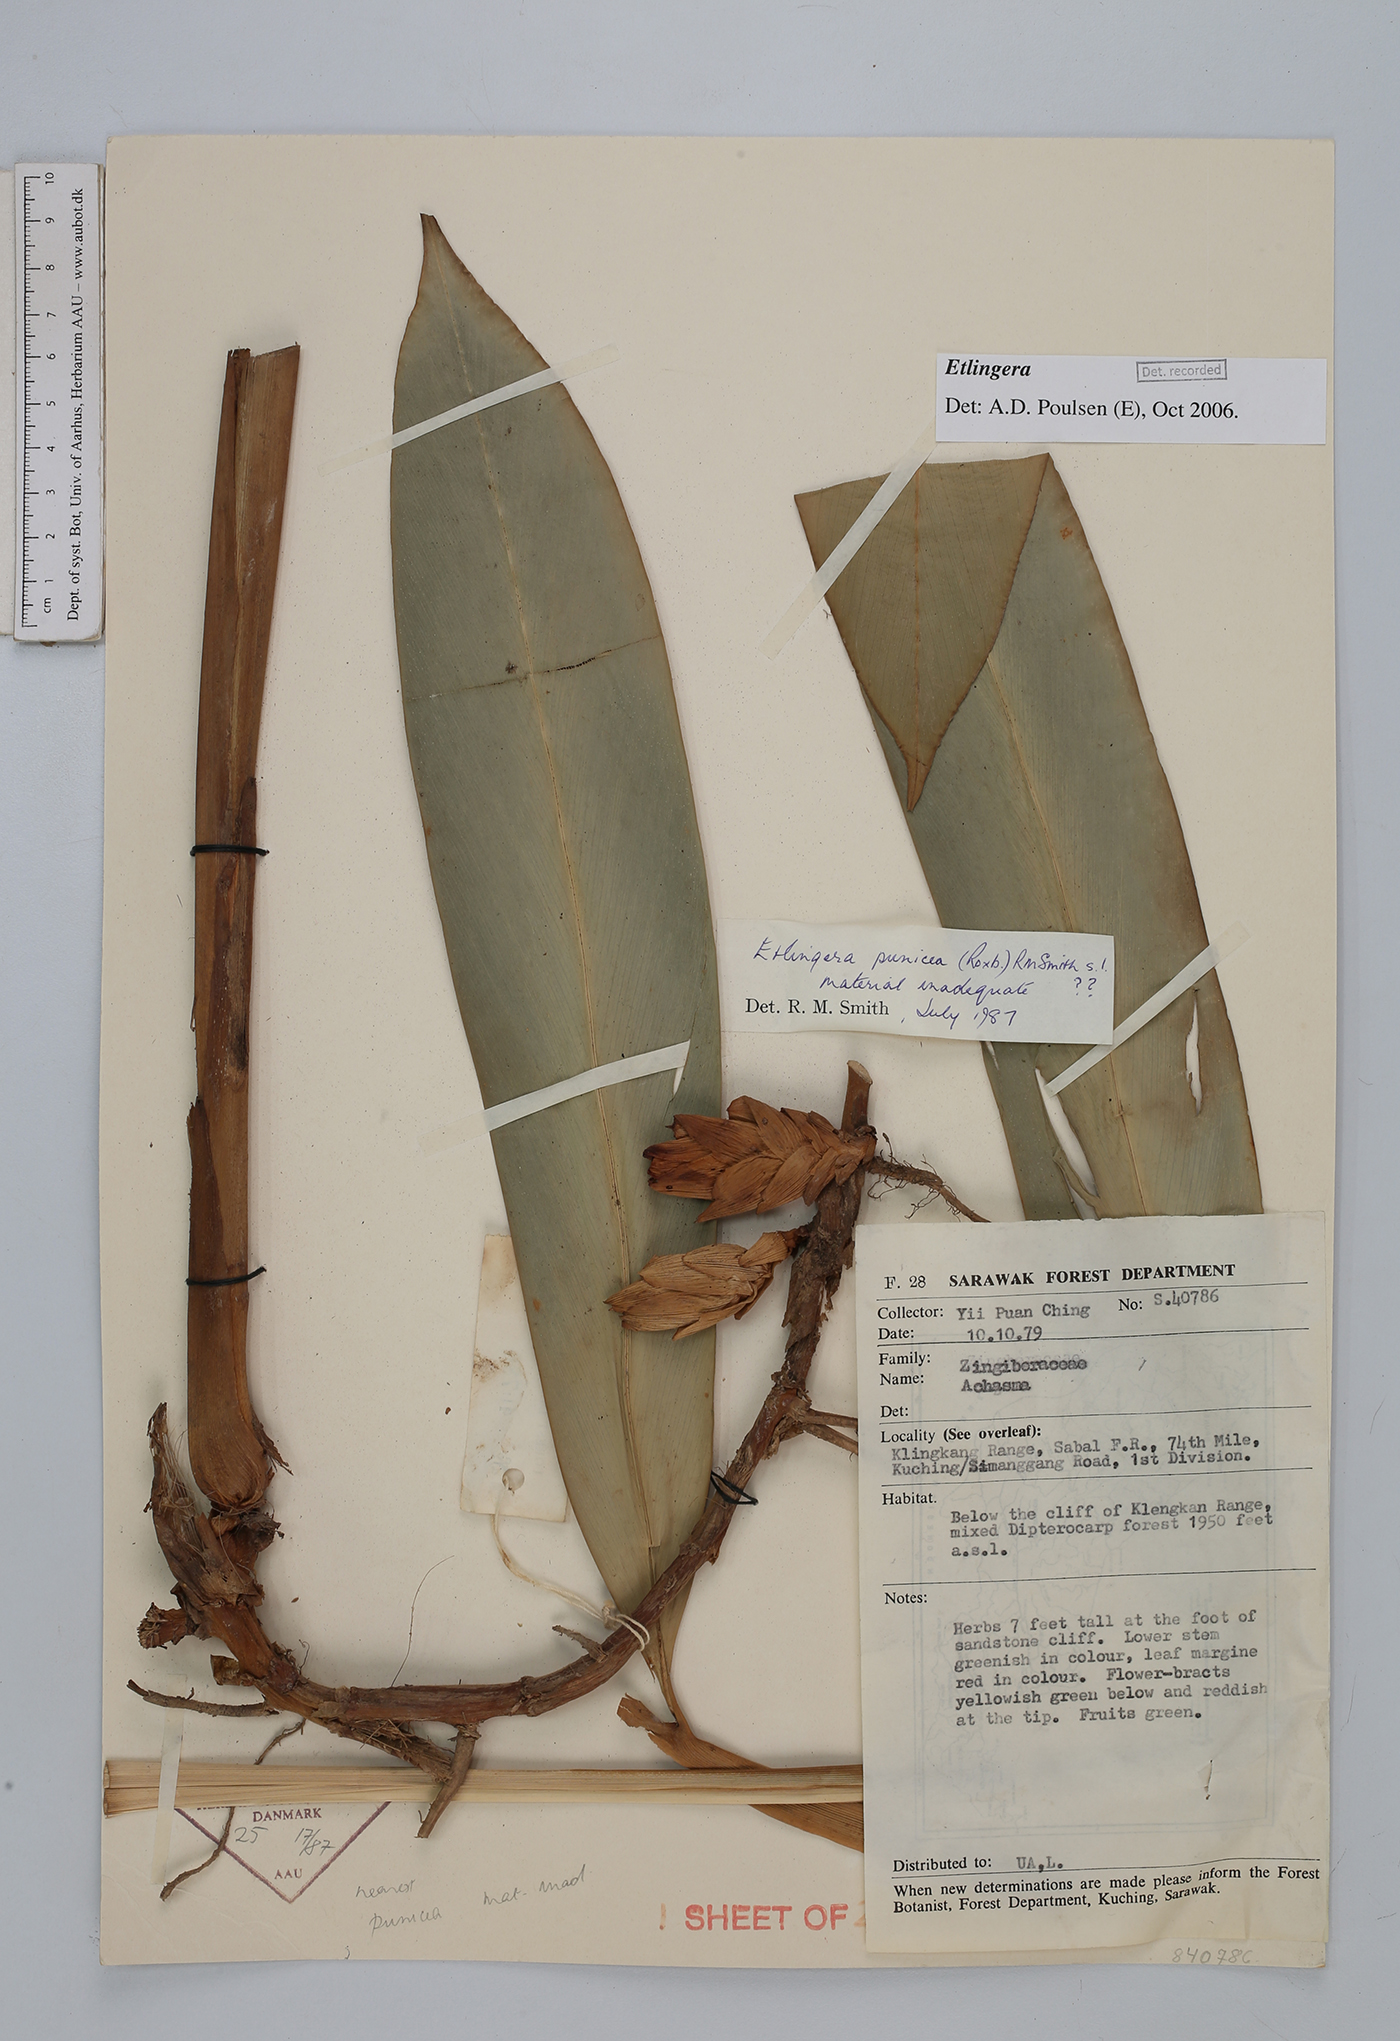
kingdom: Plantae
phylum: Tracheophyta
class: Liliopsida
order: Zingiberales
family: Zingiberaceae
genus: Etlingera
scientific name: Etlingera
